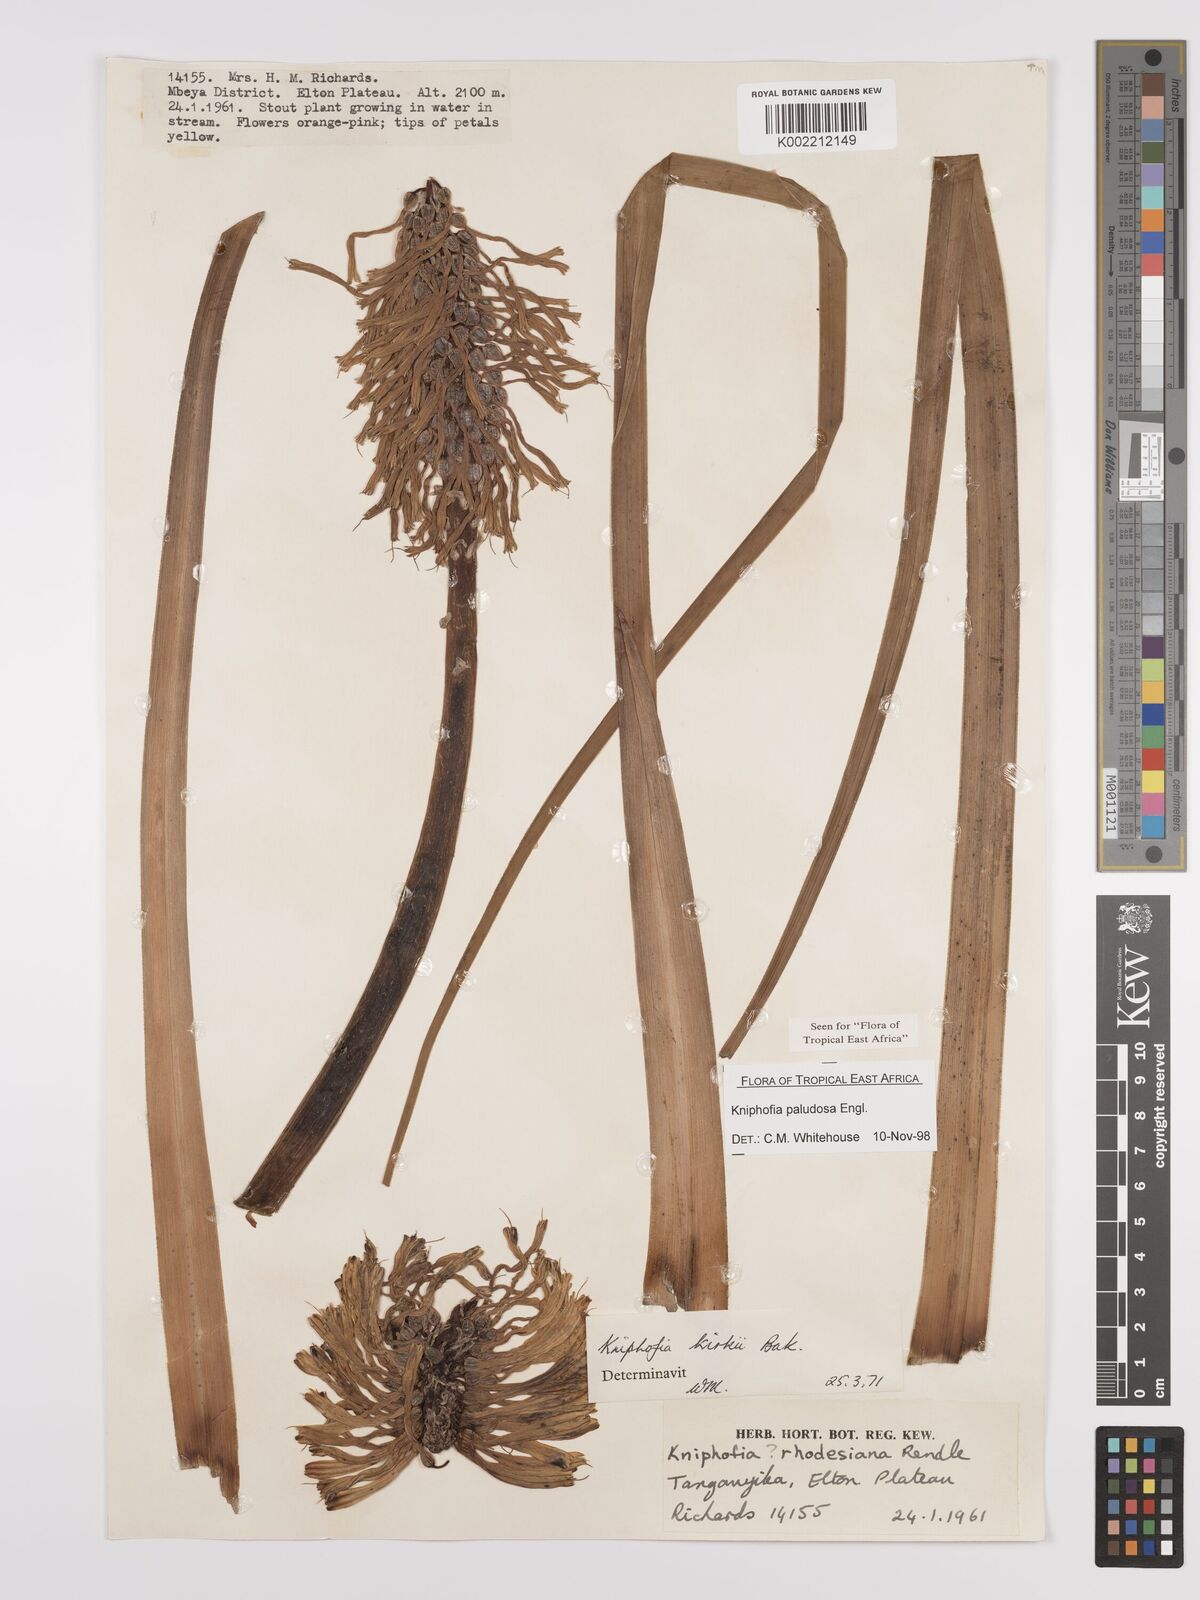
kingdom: Plantae
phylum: Tracheophyta
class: Liliopsida
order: Asparagales
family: Asphodelaceae
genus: Kniphofia
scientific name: Kniphofia paludosa
